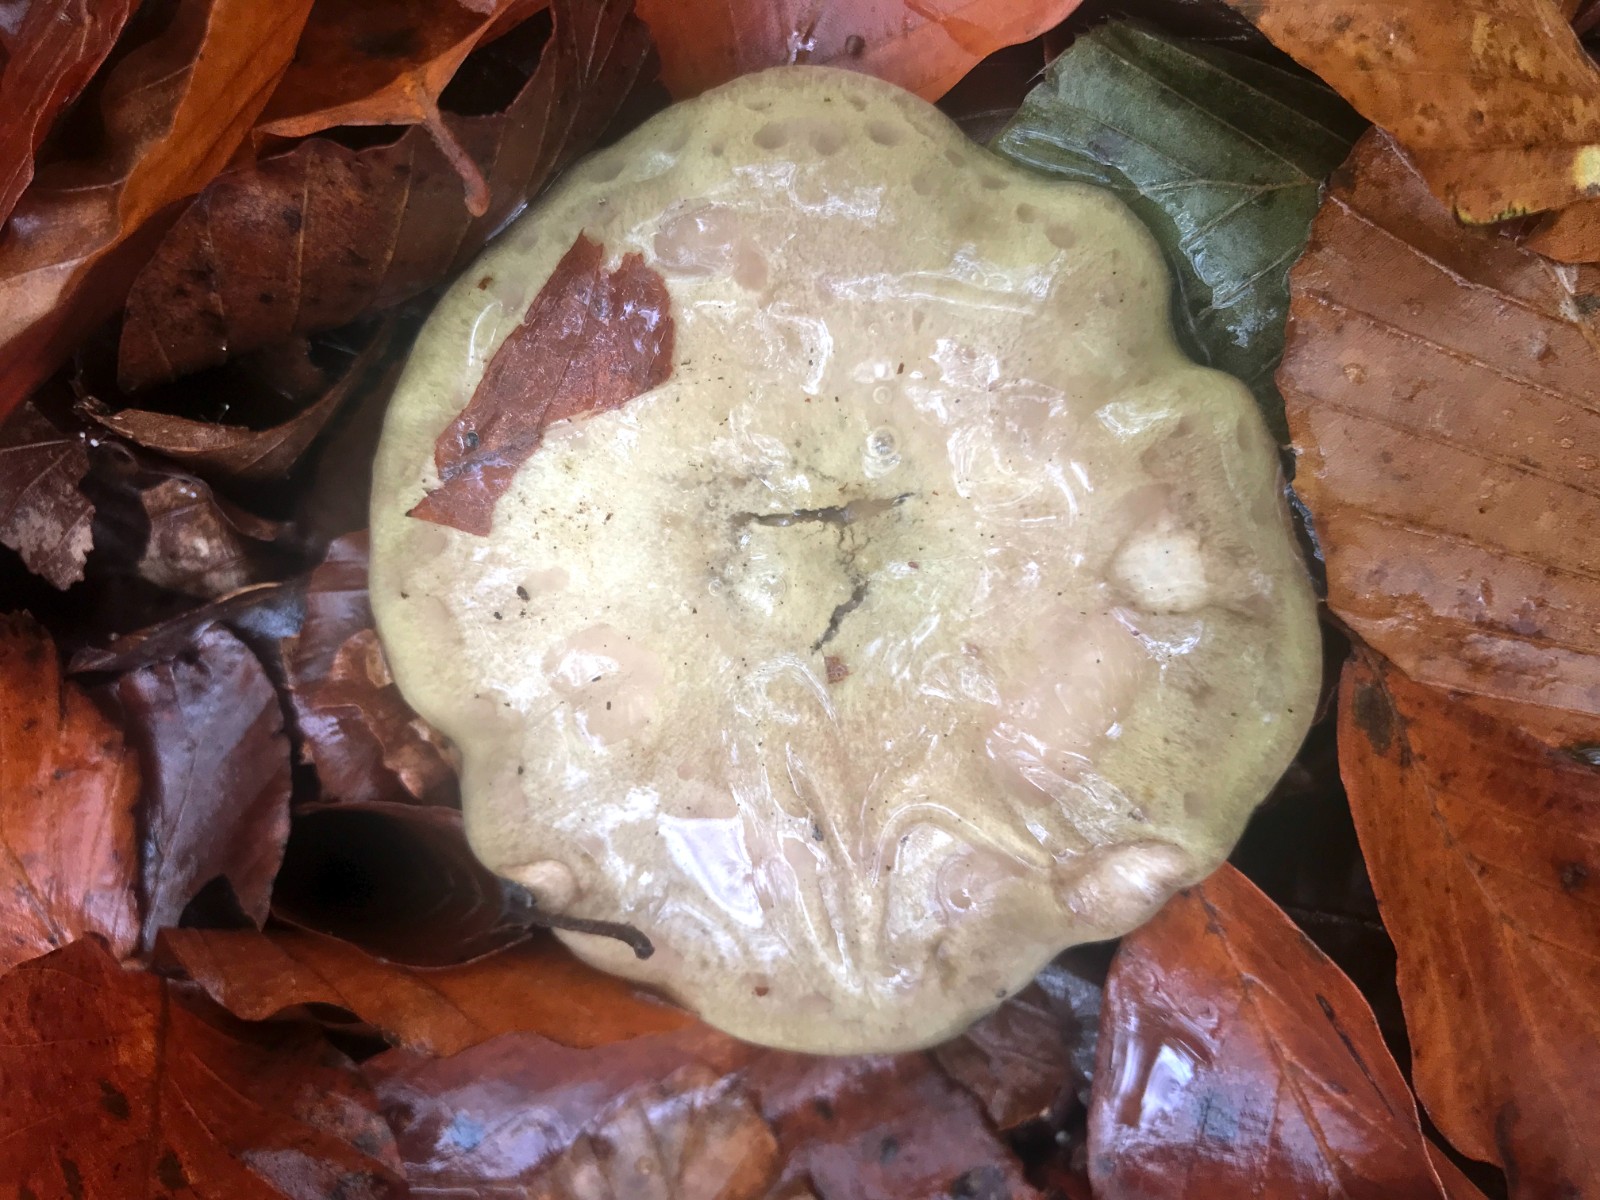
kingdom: Fungi
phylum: Basidiomycota
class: Agaricomycetes
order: Russulales
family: Russulaceae
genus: Lactarius
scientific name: Lactarius blennius
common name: dråbeplettet mælkehat
